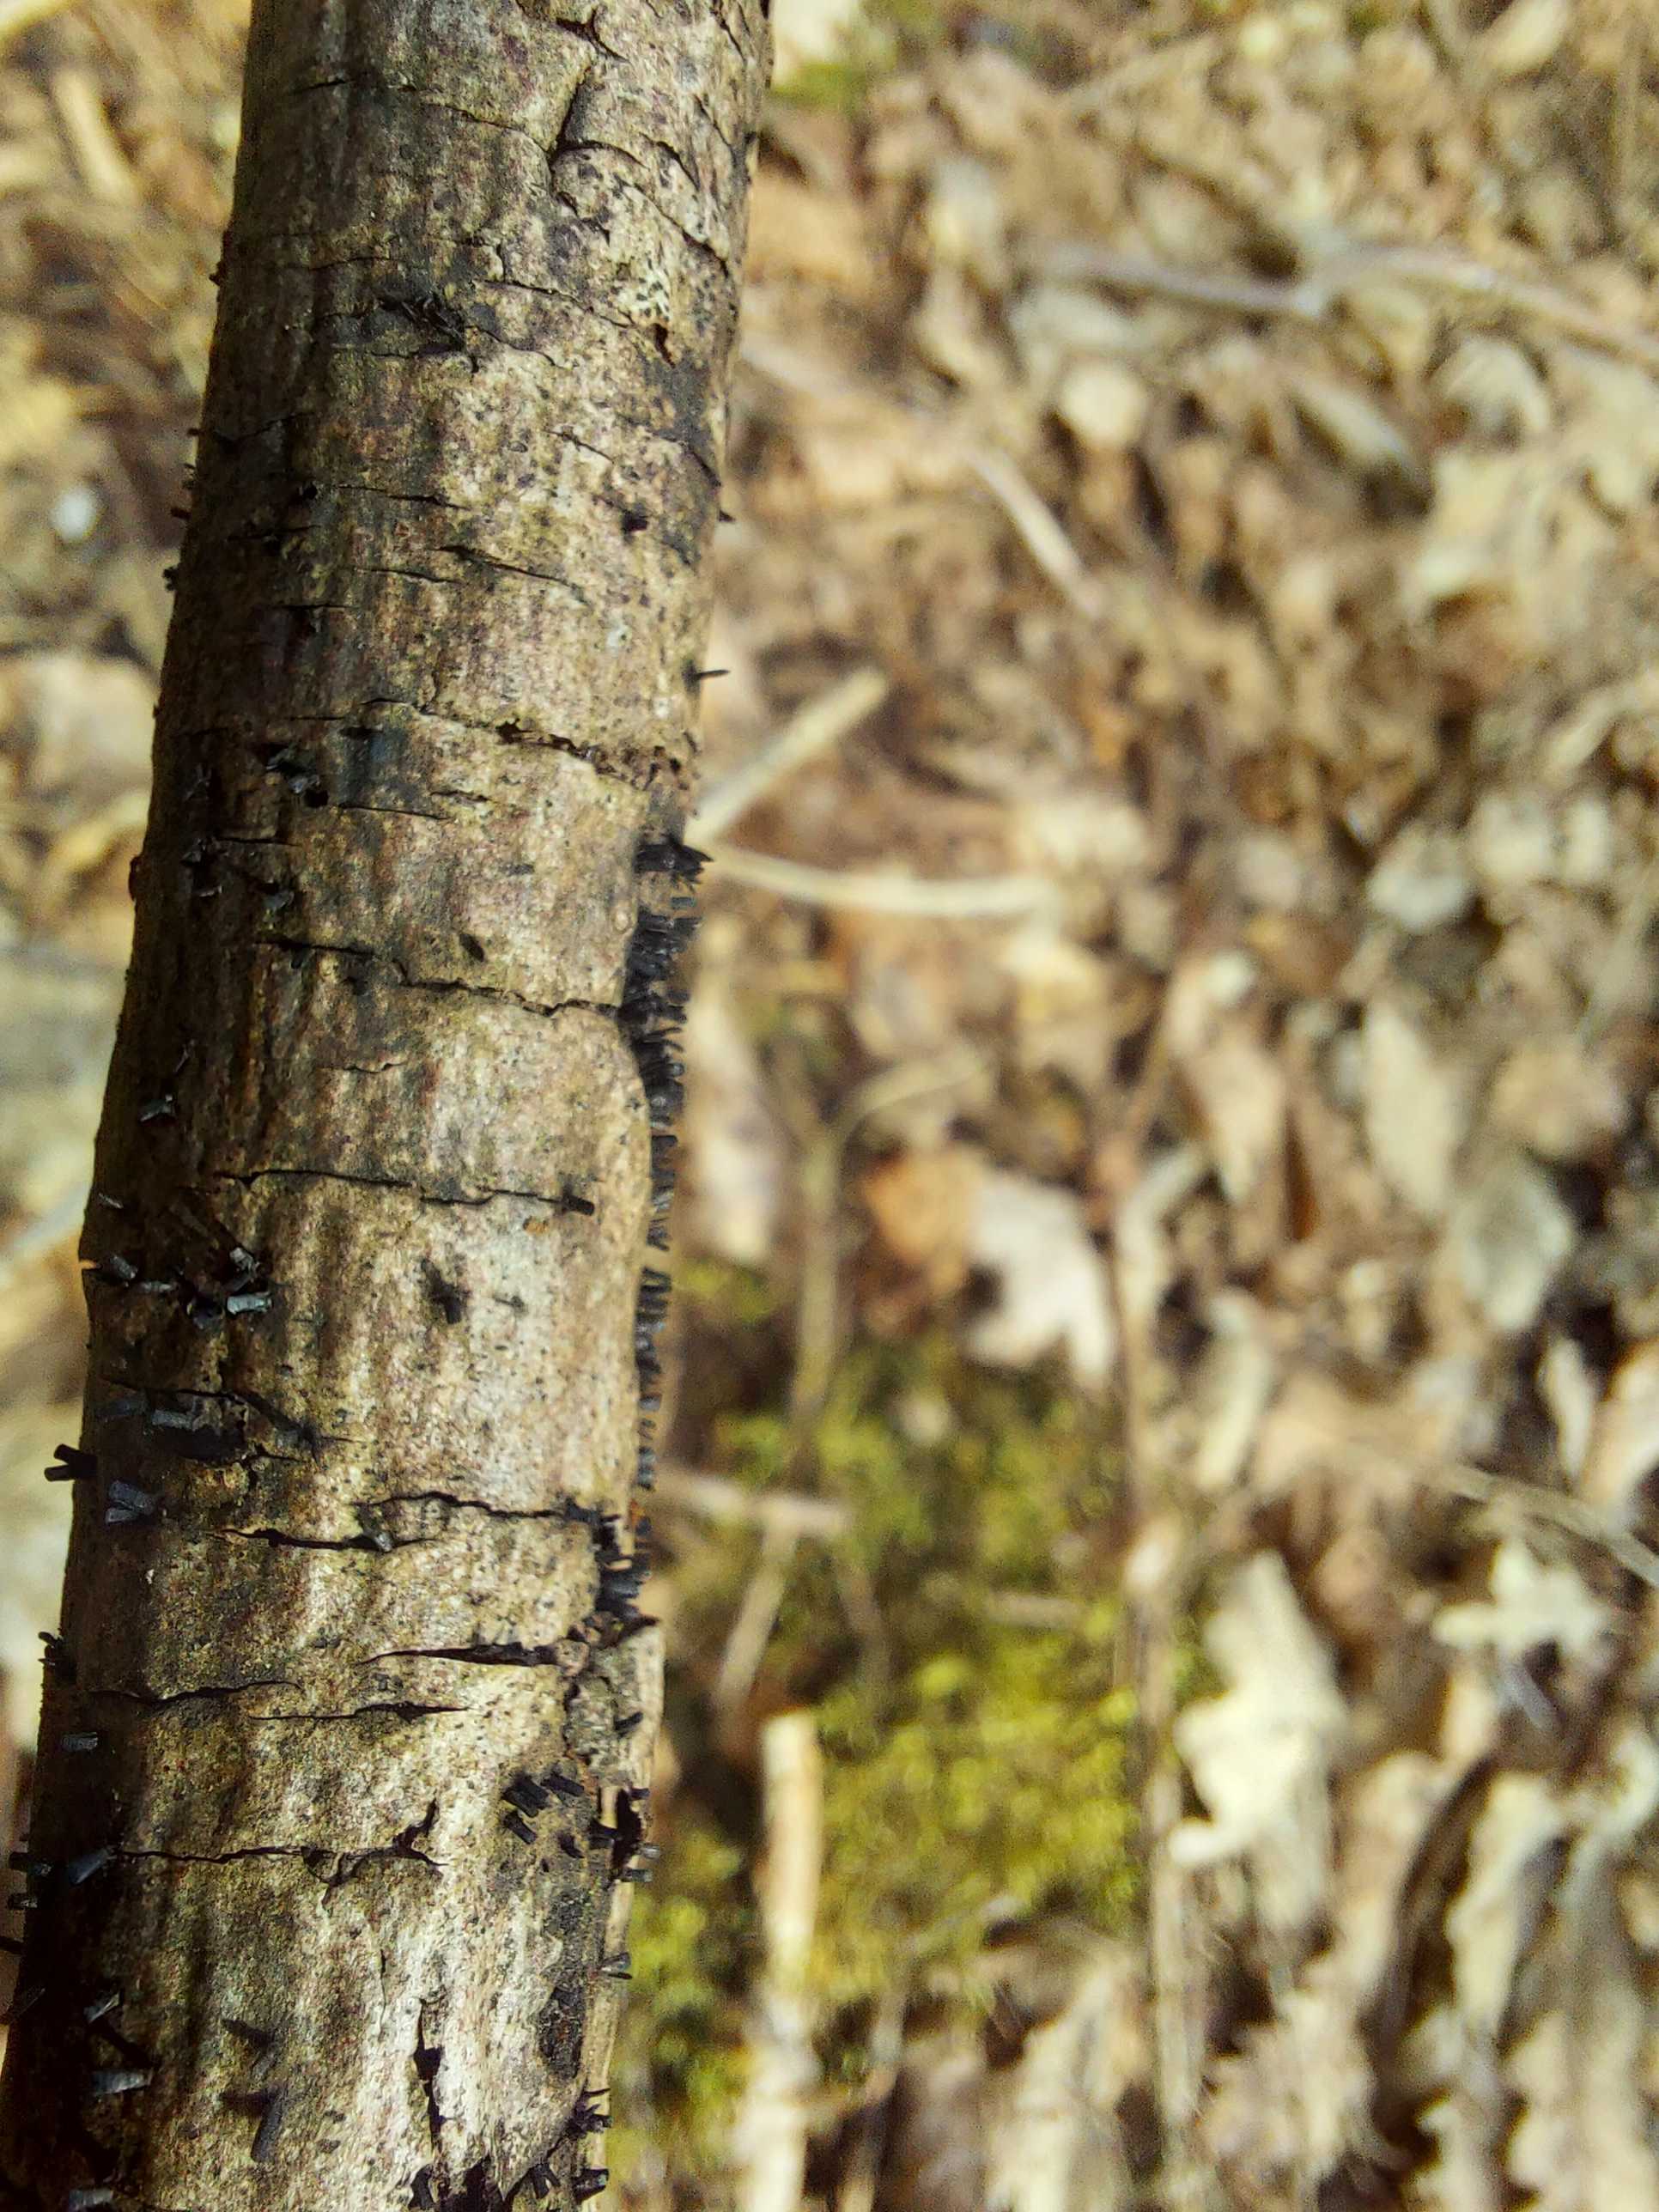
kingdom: Fungi
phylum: Ascomycota
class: Eurotiomycetes
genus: Glyphium
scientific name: Glyphium elatum
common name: kuløkse
